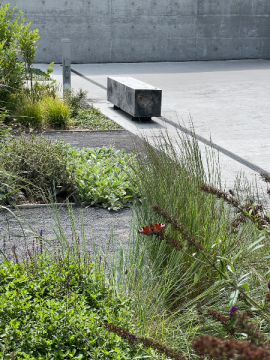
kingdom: Animalia
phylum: Arthropoda
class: Insecta
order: Lepidoptera
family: Nymphalidae
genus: Aglais
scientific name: Aglais io
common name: European Peacock
